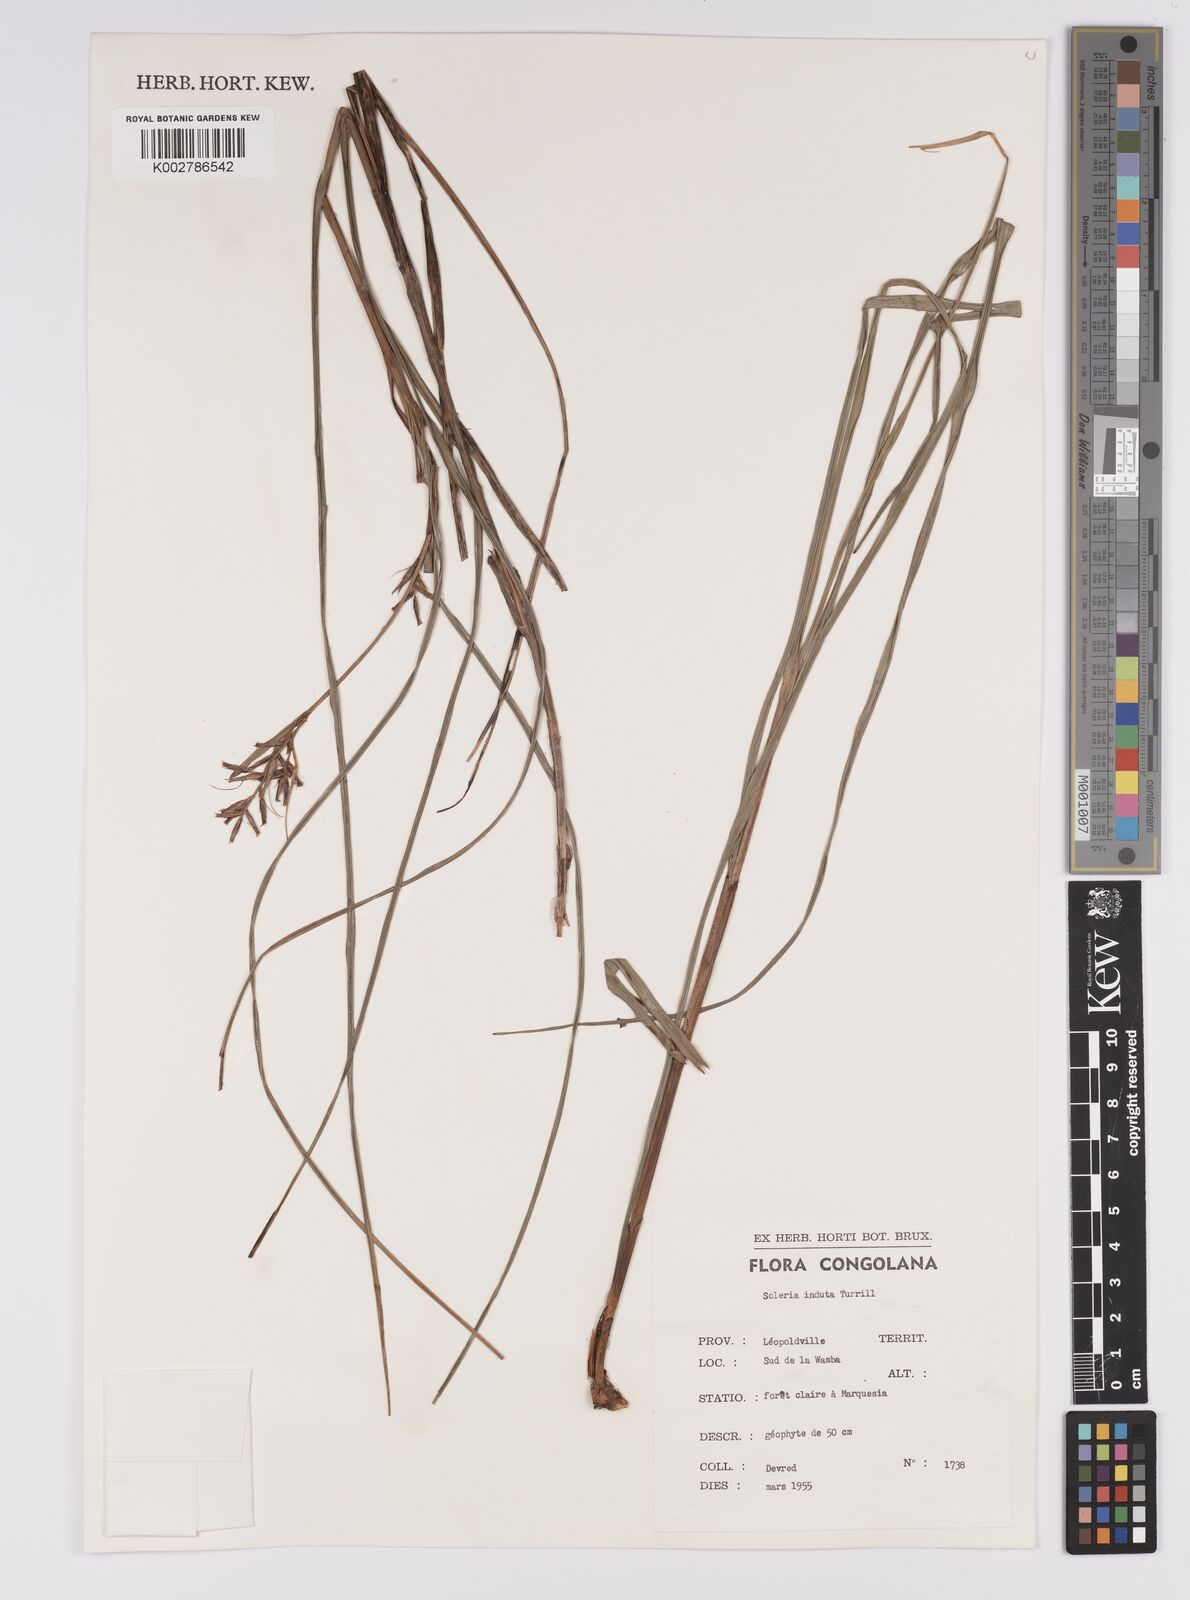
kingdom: Plantae
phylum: Tracheophyta
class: Liliopsida
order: Poales
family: Cyperaceae
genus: Scleria
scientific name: Scleria induta
